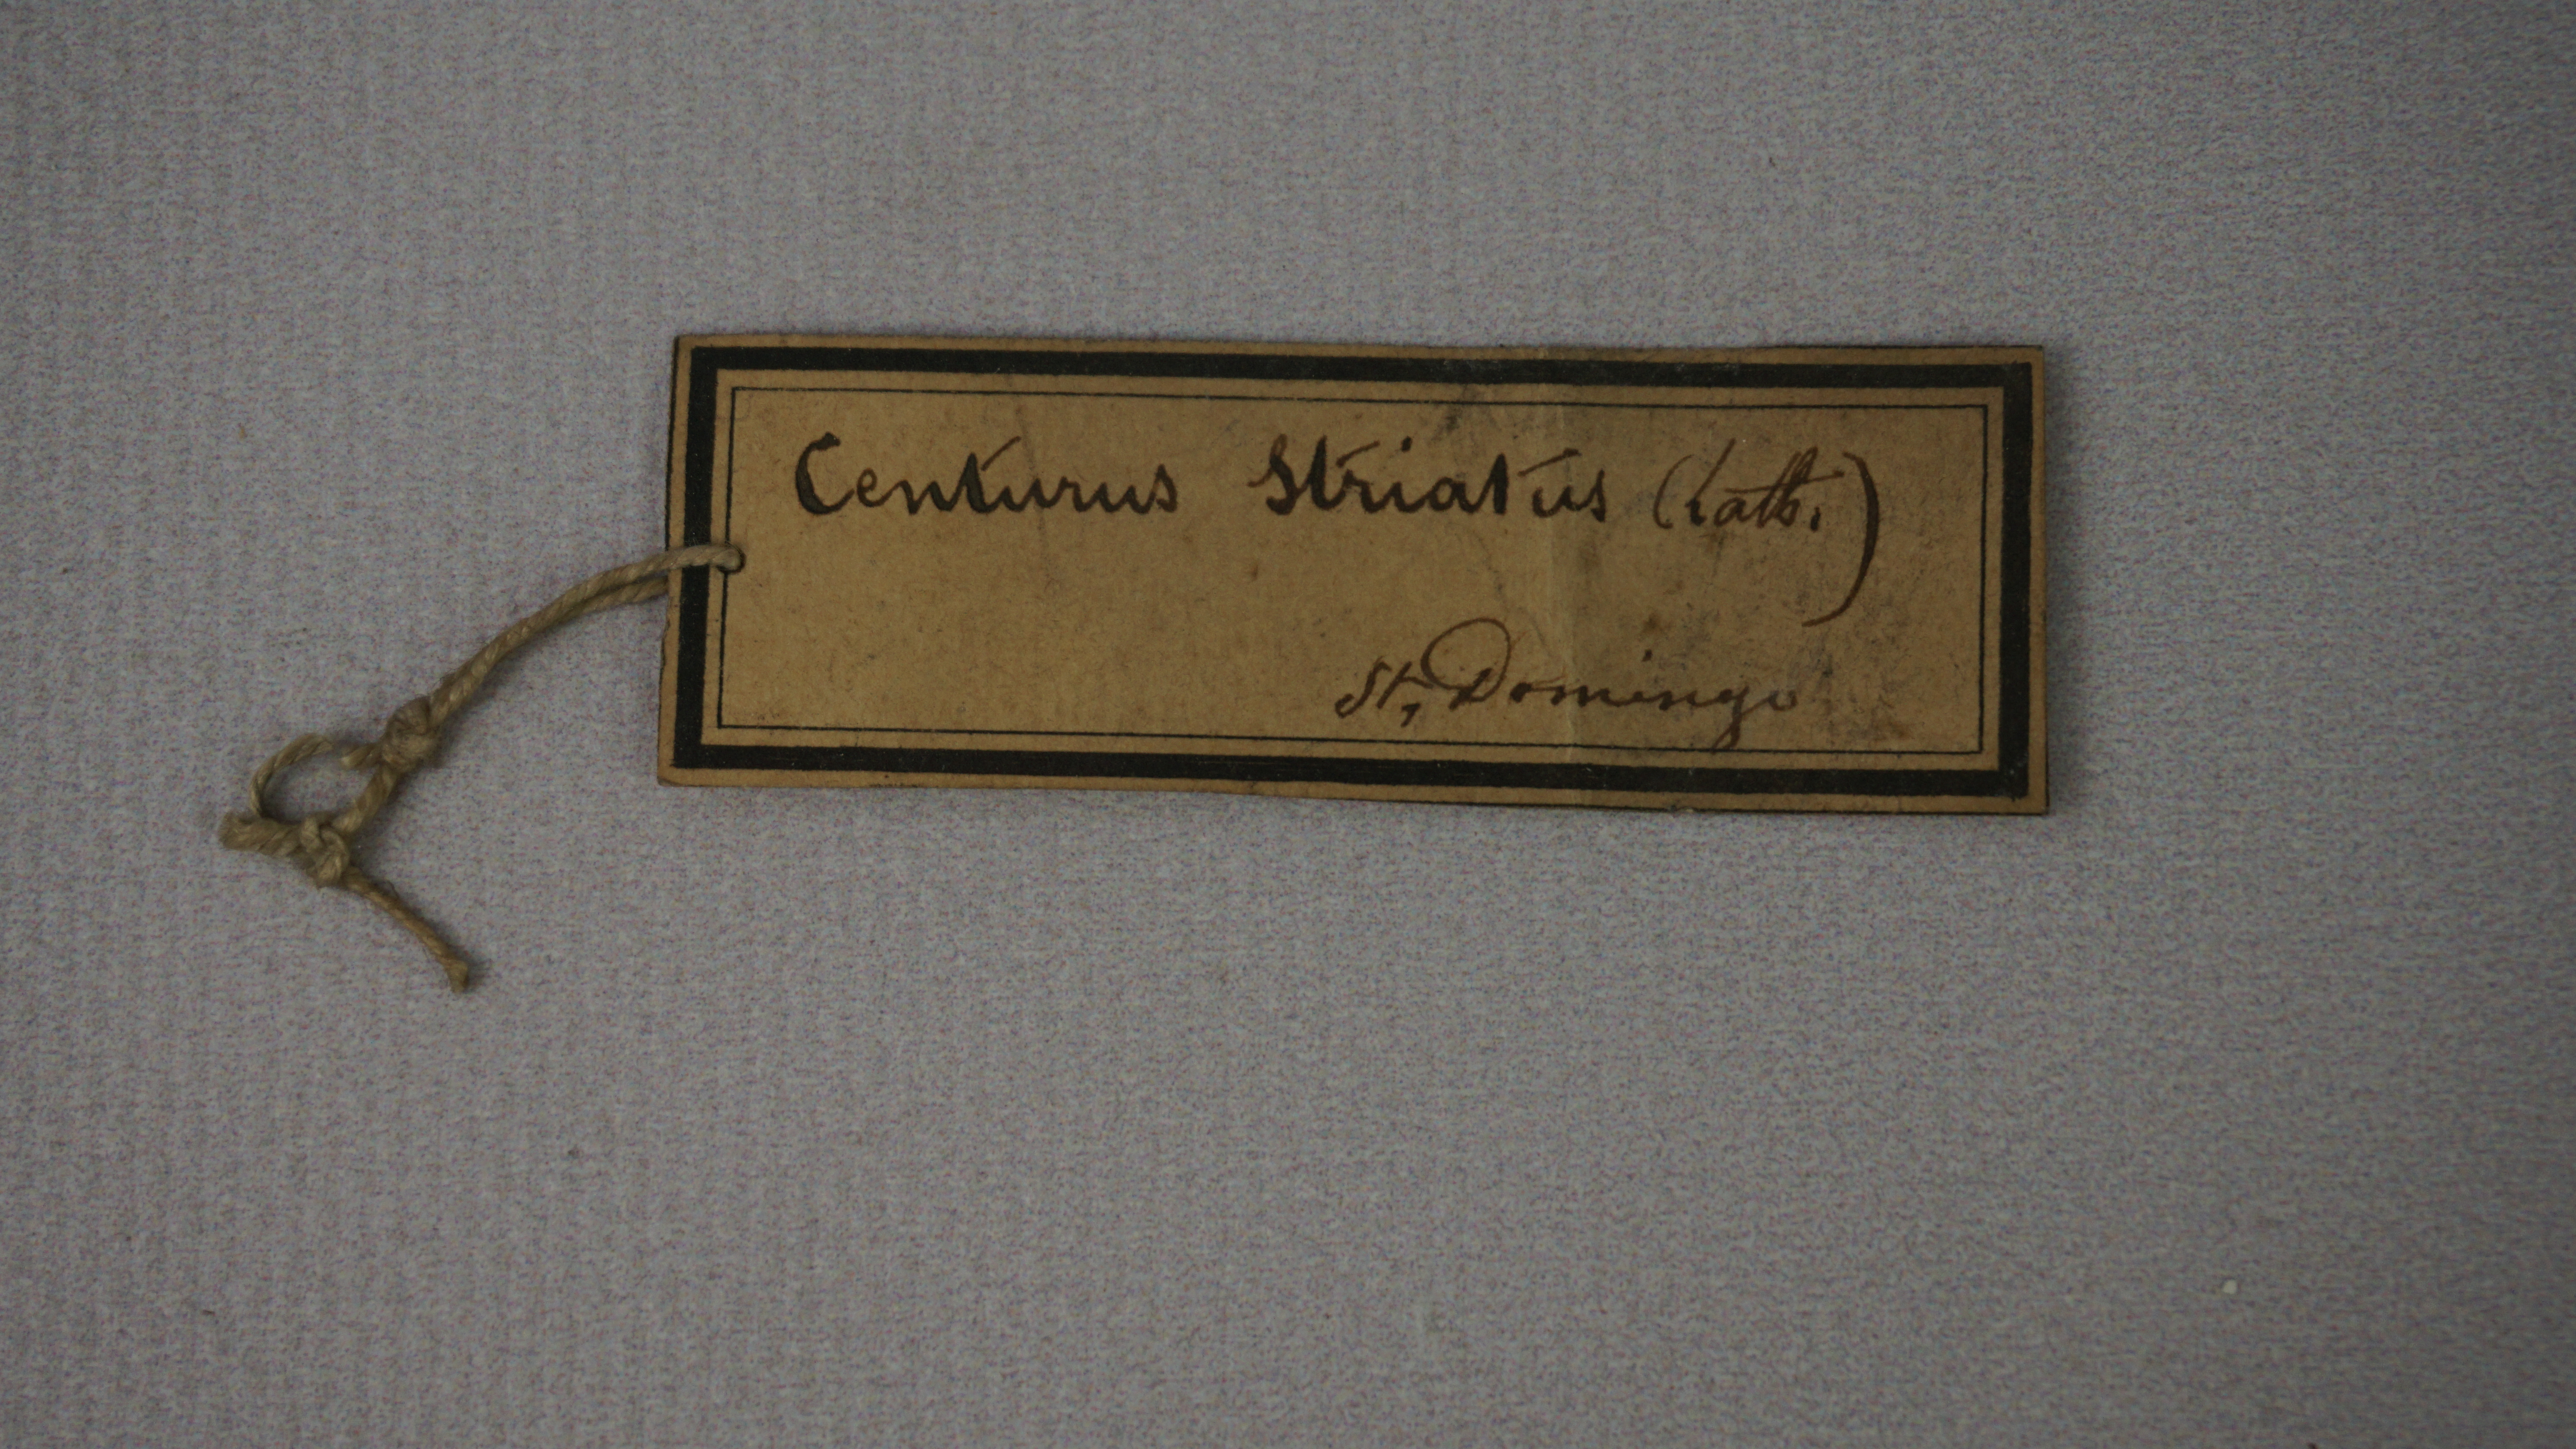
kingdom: Animalia
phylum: Chordata
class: Aves
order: Piciformes
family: Picidae
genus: Melanerpes
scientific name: Melanerpes striatus
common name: Hispaniolan woodpecker
